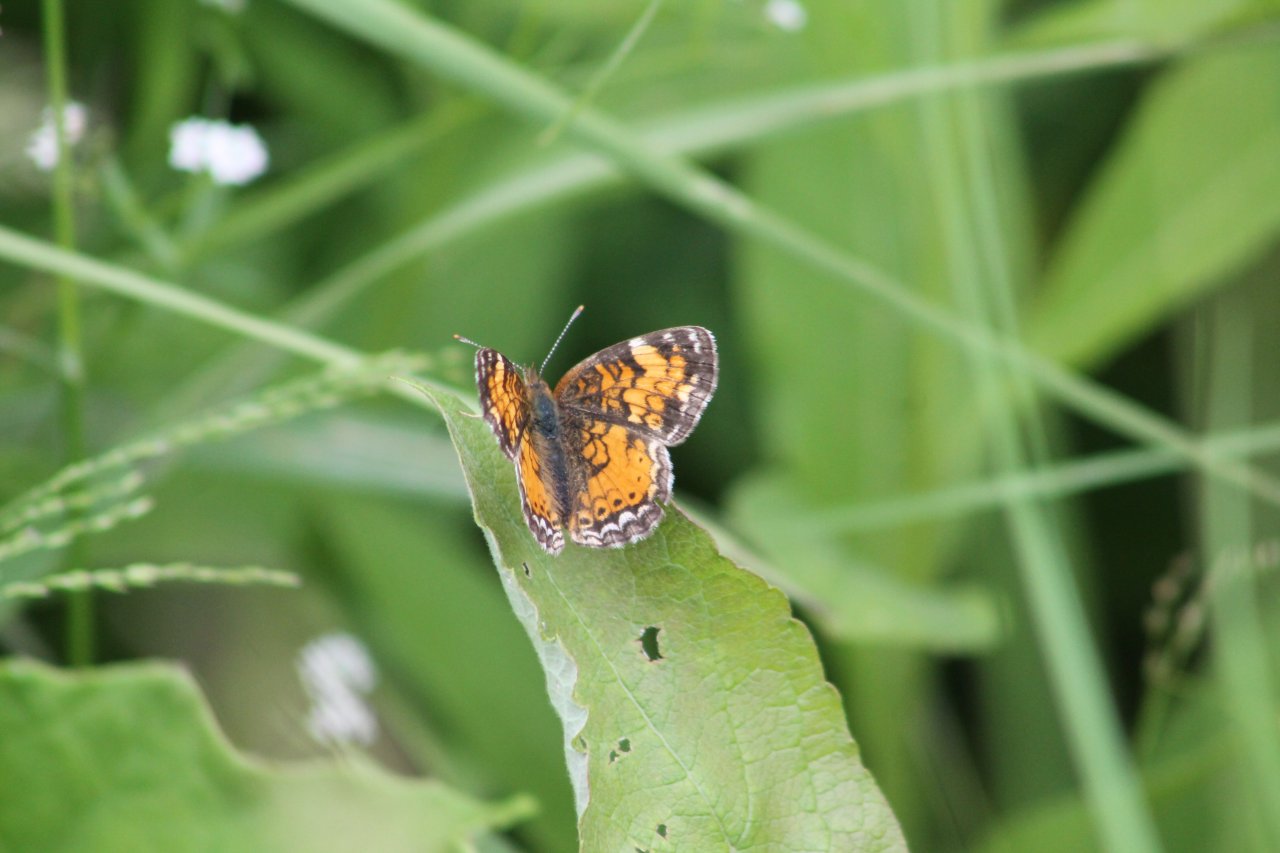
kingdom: Animalia
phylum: Arthropoda
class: Insecta
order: Lepidoptera
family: Nymphalidae
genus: Phyciodes
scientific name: Phyciodes tharos
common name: Pearl Crescent
